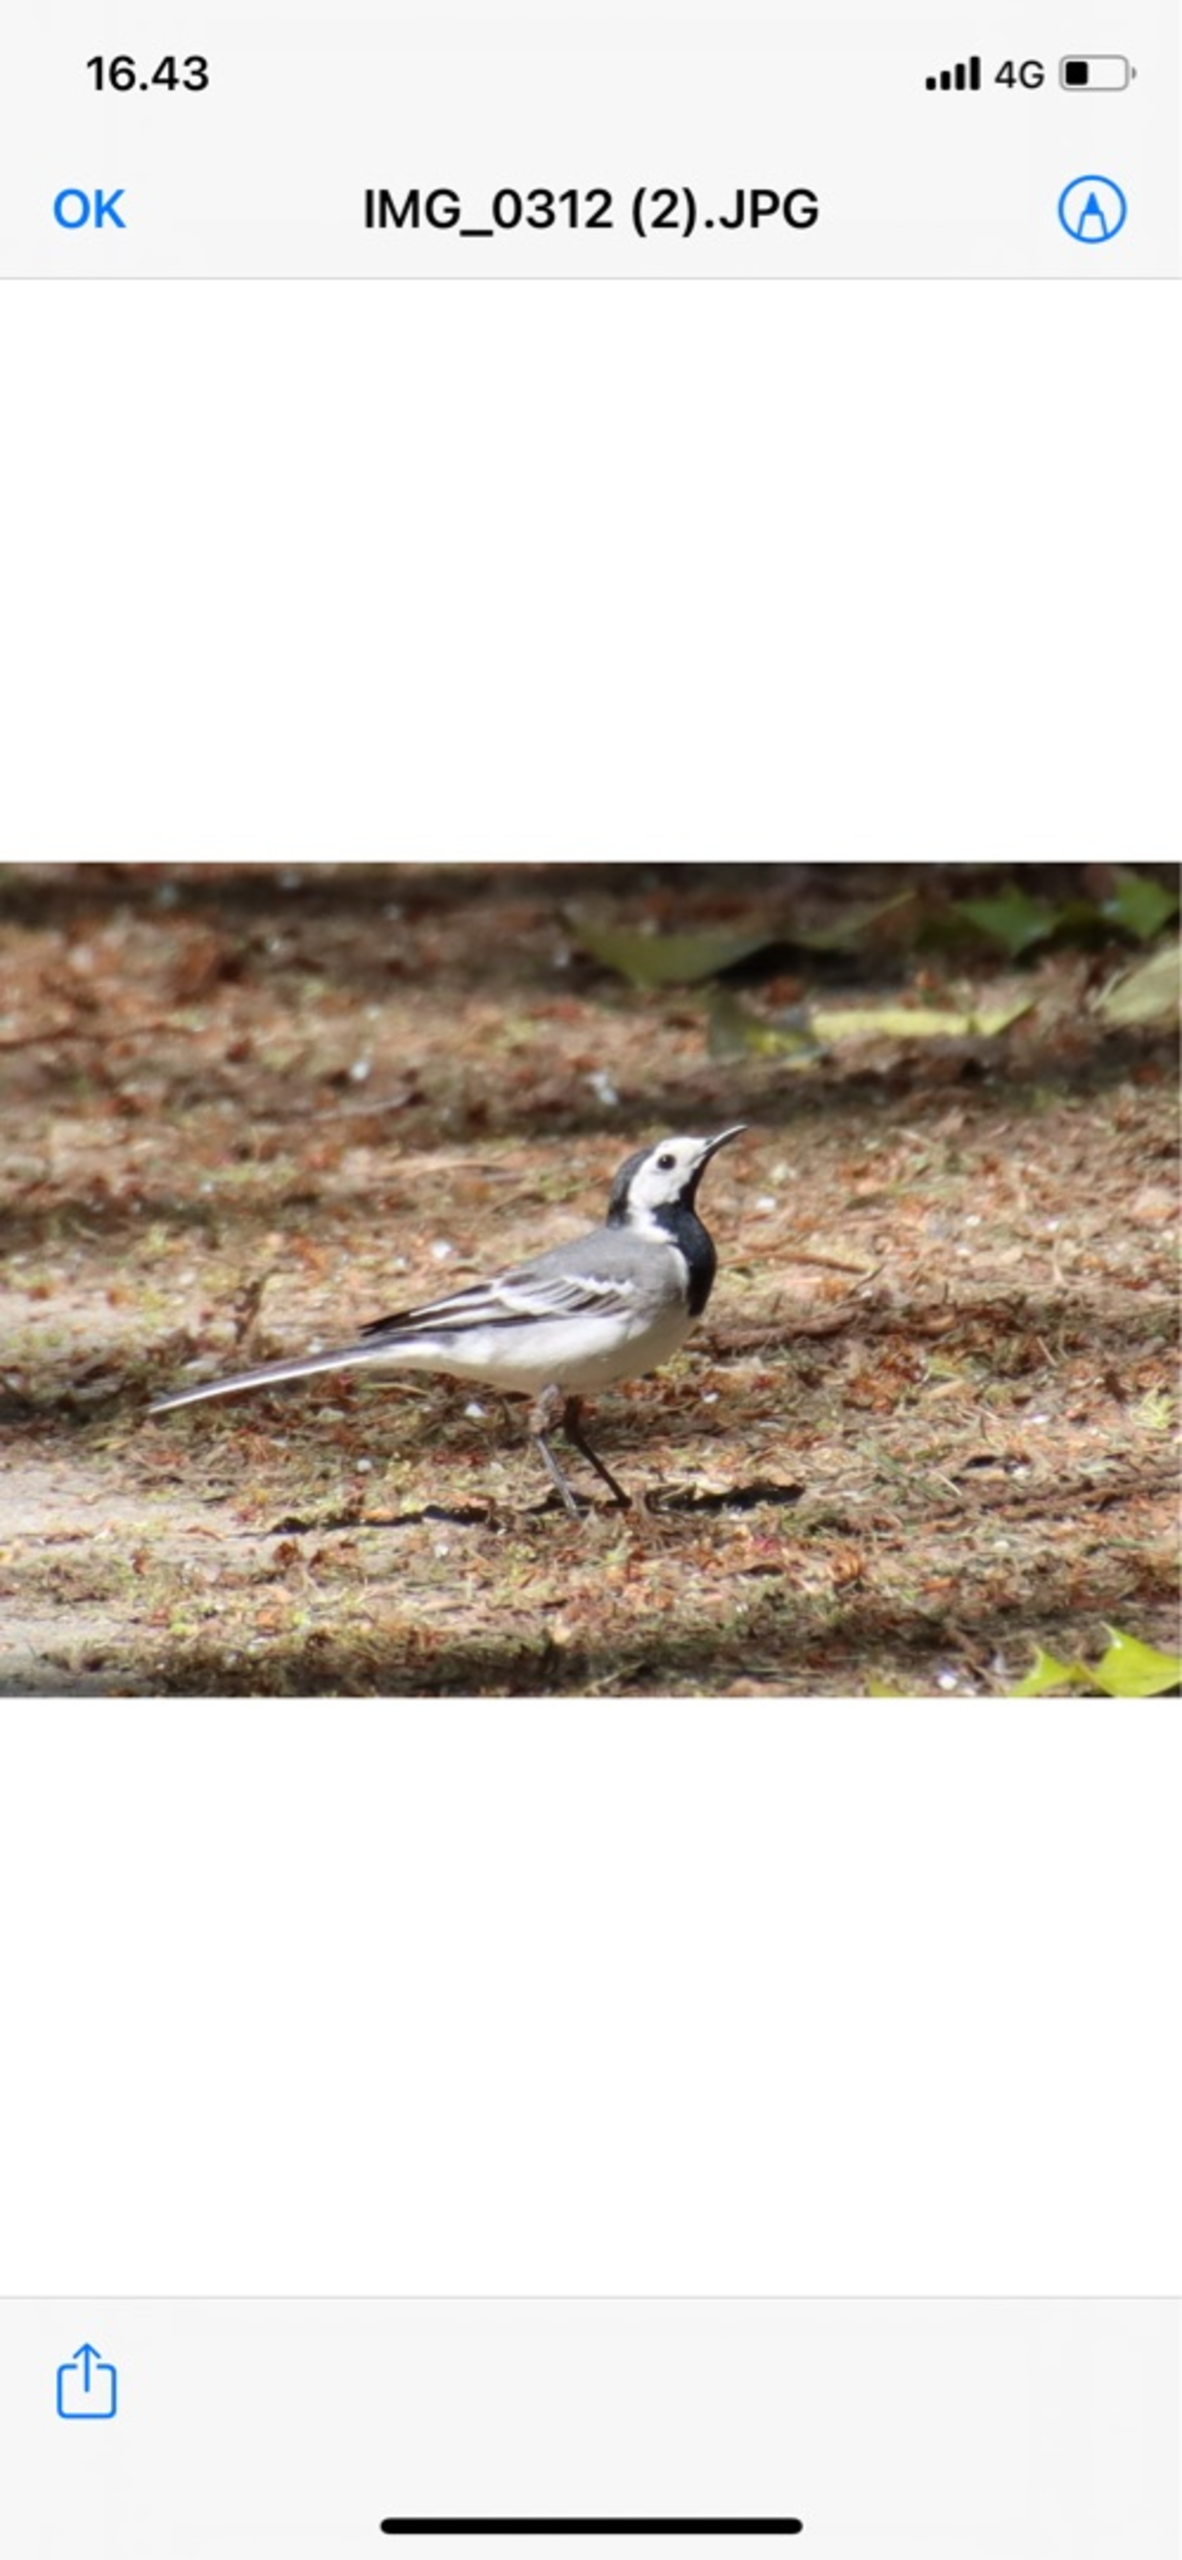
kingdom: Animalia
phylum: Chordata
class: Aves
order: Passeriformes
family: Motacillidae
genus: Motacilla
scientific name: Motacilla alba
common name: Hvid vipstjert
